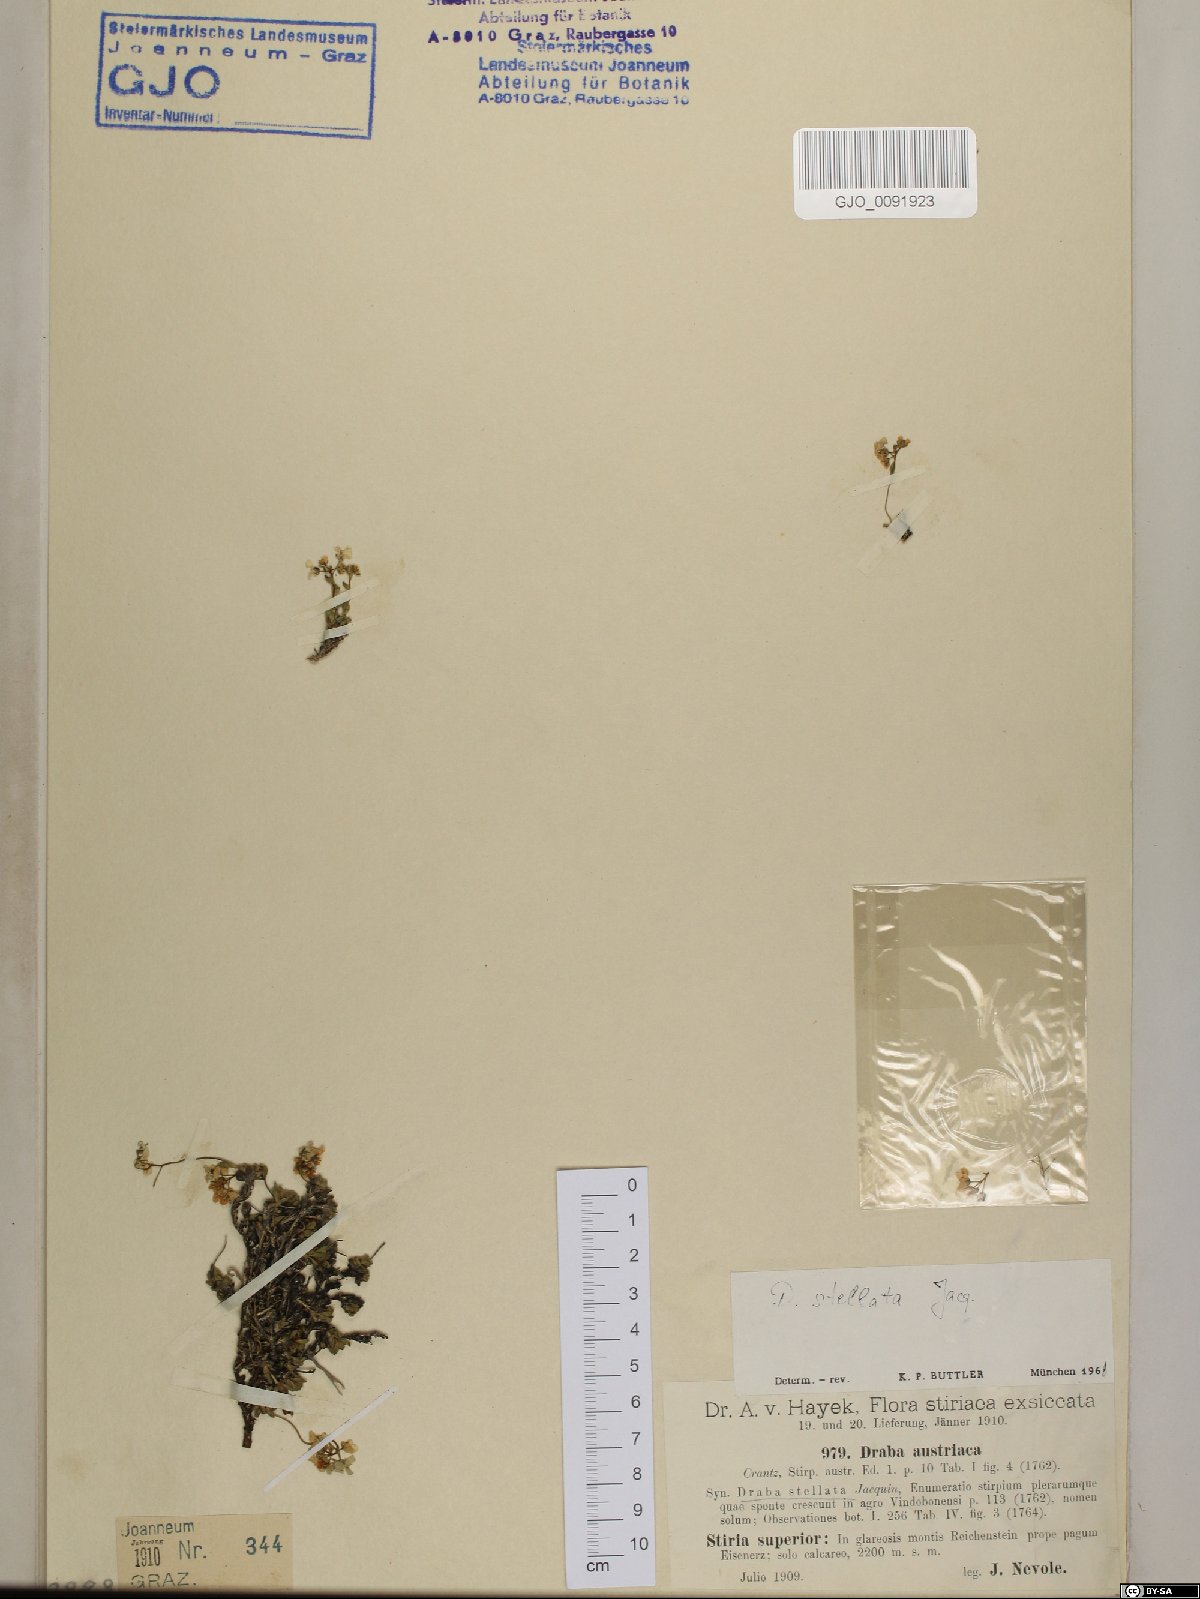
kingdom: Plantae
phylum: Tracheophyta
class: Magnoliopsida
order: Brassicales
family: Brassicaceae
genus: Draba
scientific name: Draba stellata
